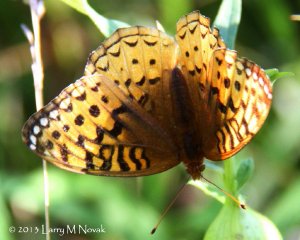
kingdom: Animalia
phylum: Arthropoda
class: Insecta
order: Lepidoptera
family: Nymphalidae
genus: Speyeria
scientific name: Speyeria cybele
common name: Great Spangled Fritillary
